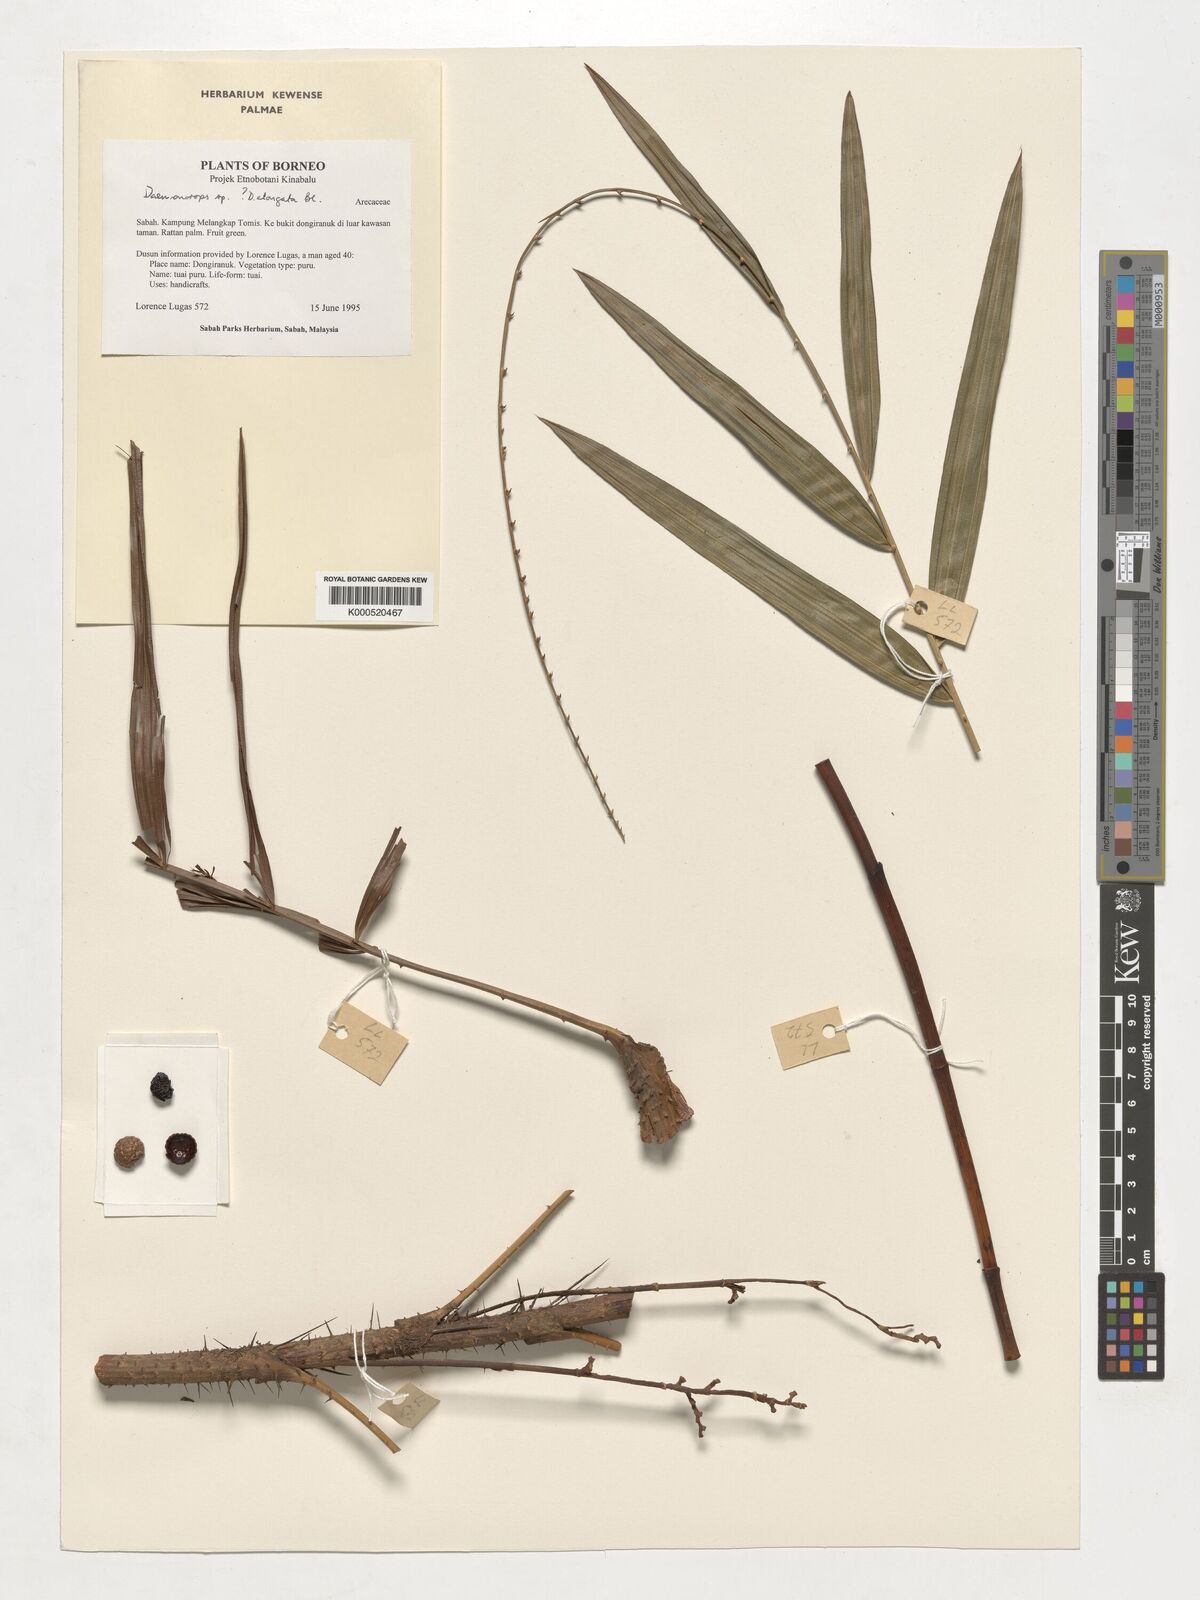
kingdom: Plantae
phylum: Tracheophyta
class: Liliopsida
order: Arecales
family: Arecaceae
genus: Calamus
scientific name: Calamus oblongus
